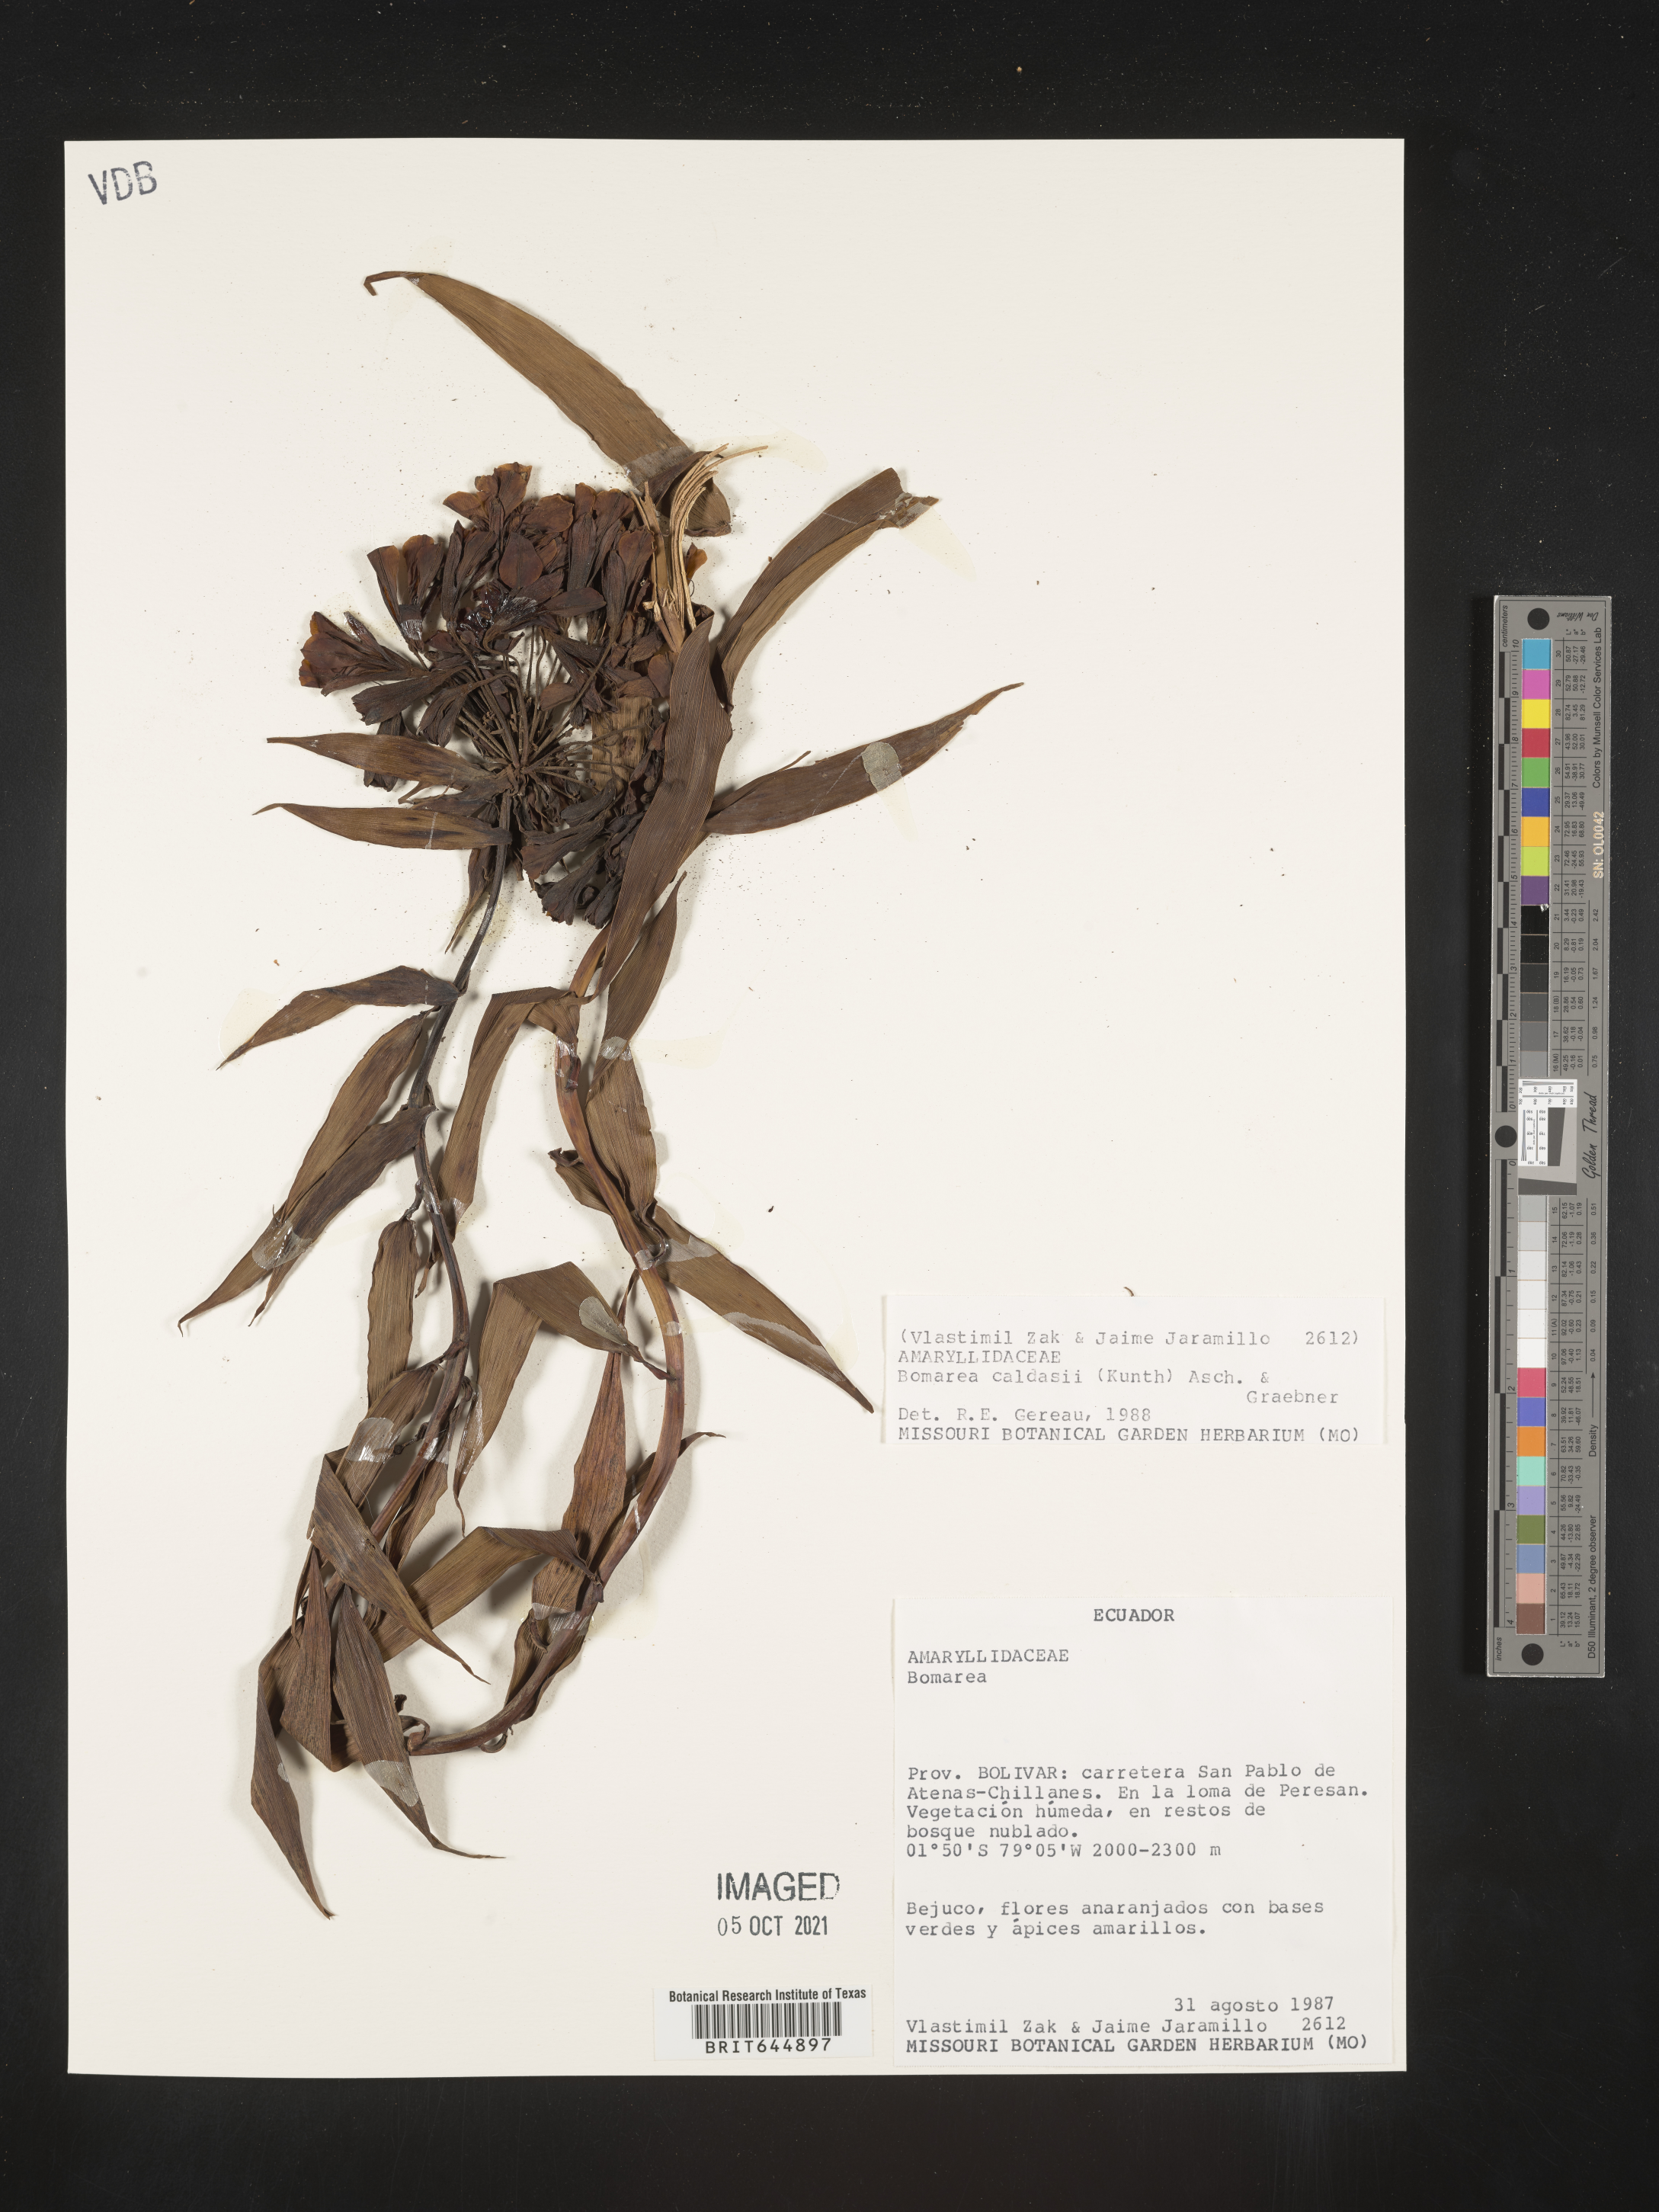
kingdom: Plantae
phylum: Tracheophyta
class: Liliopsida
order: Liliales
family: Alstroemeriaceae
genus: Bomarea
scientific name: Bomarea multiflora
